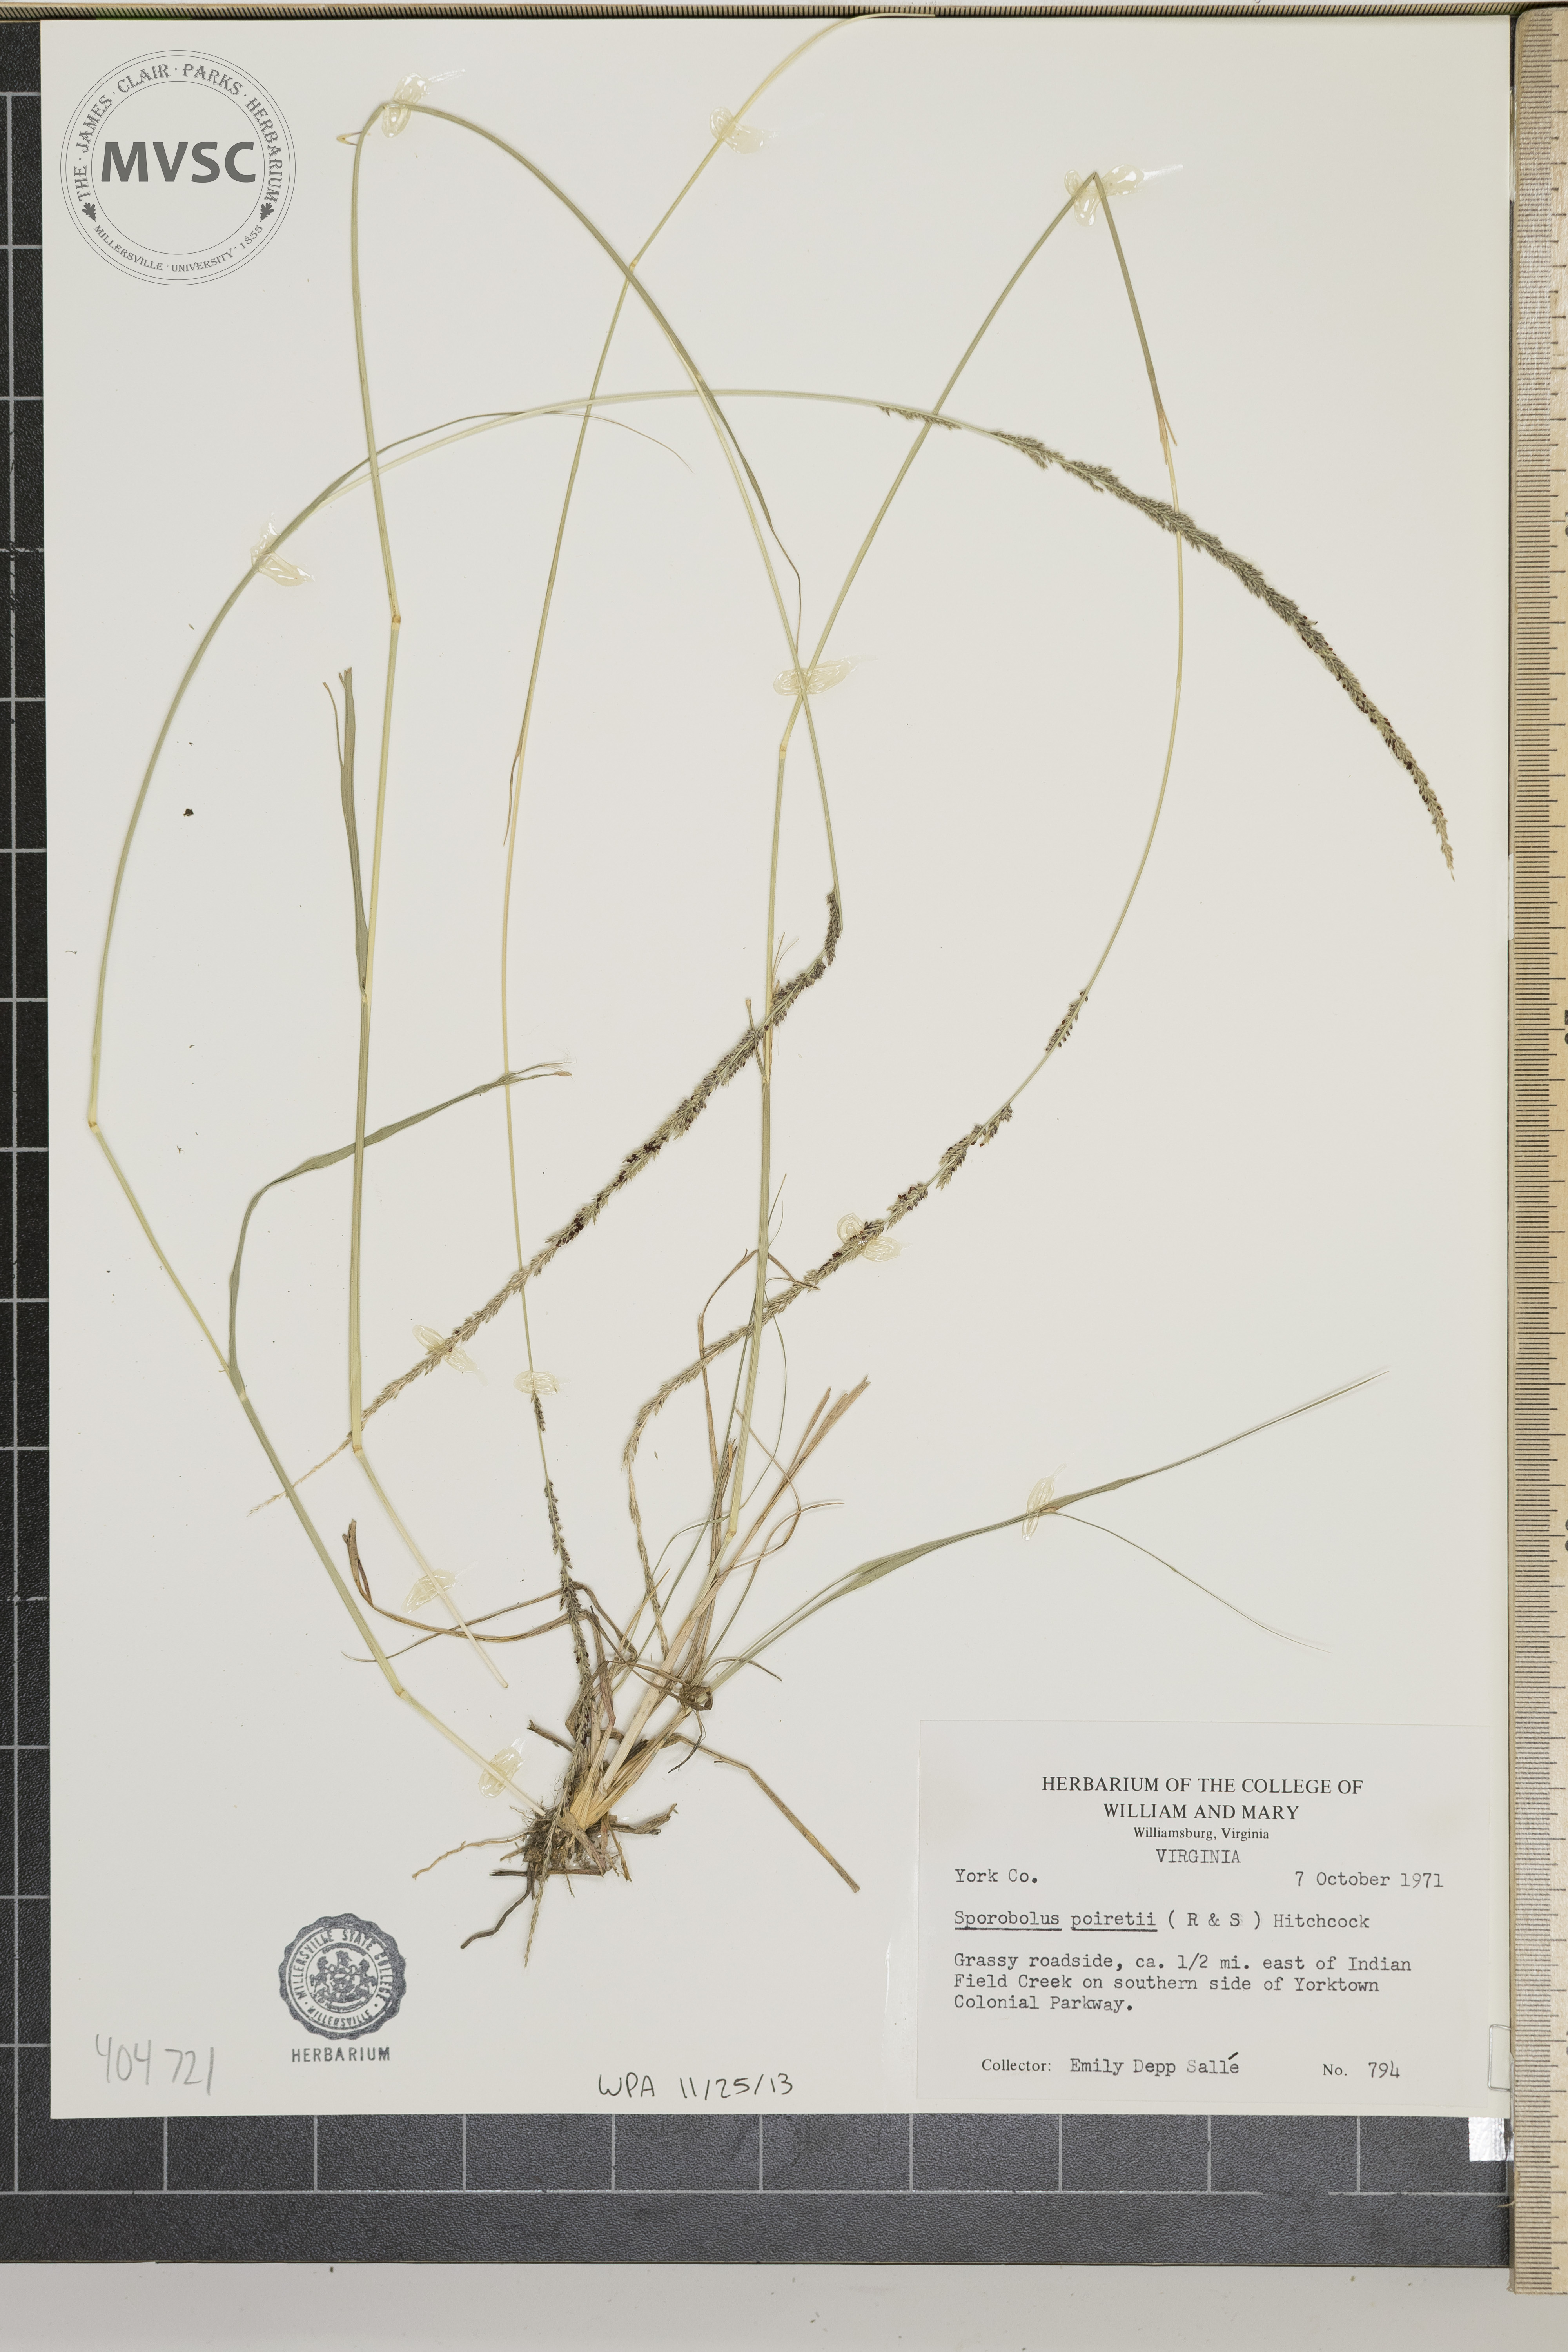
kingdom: Plantae
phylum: Tracheophyta
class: Liliopsida
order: Poales
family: Poaceae
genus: Sporobolus
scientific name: Sporobolus junceus
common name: Lizard grass
